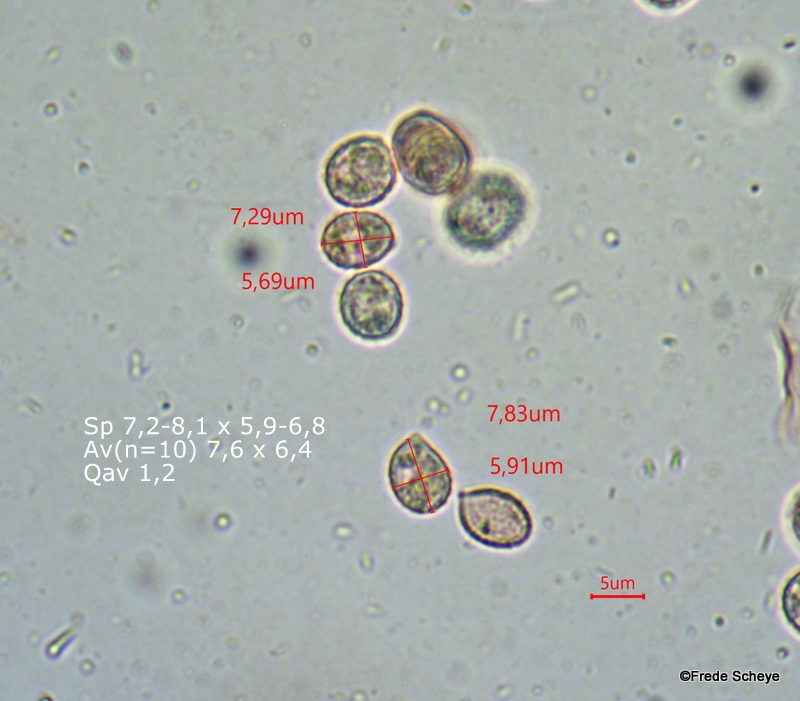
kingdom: Fungi
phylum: Basidiomycota
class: Agaricomycetes
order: Agaricales
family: Crepidotaceae
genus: Crepidotus
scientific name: Crepidotus cesatii
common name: almindelig muslingesvamp
